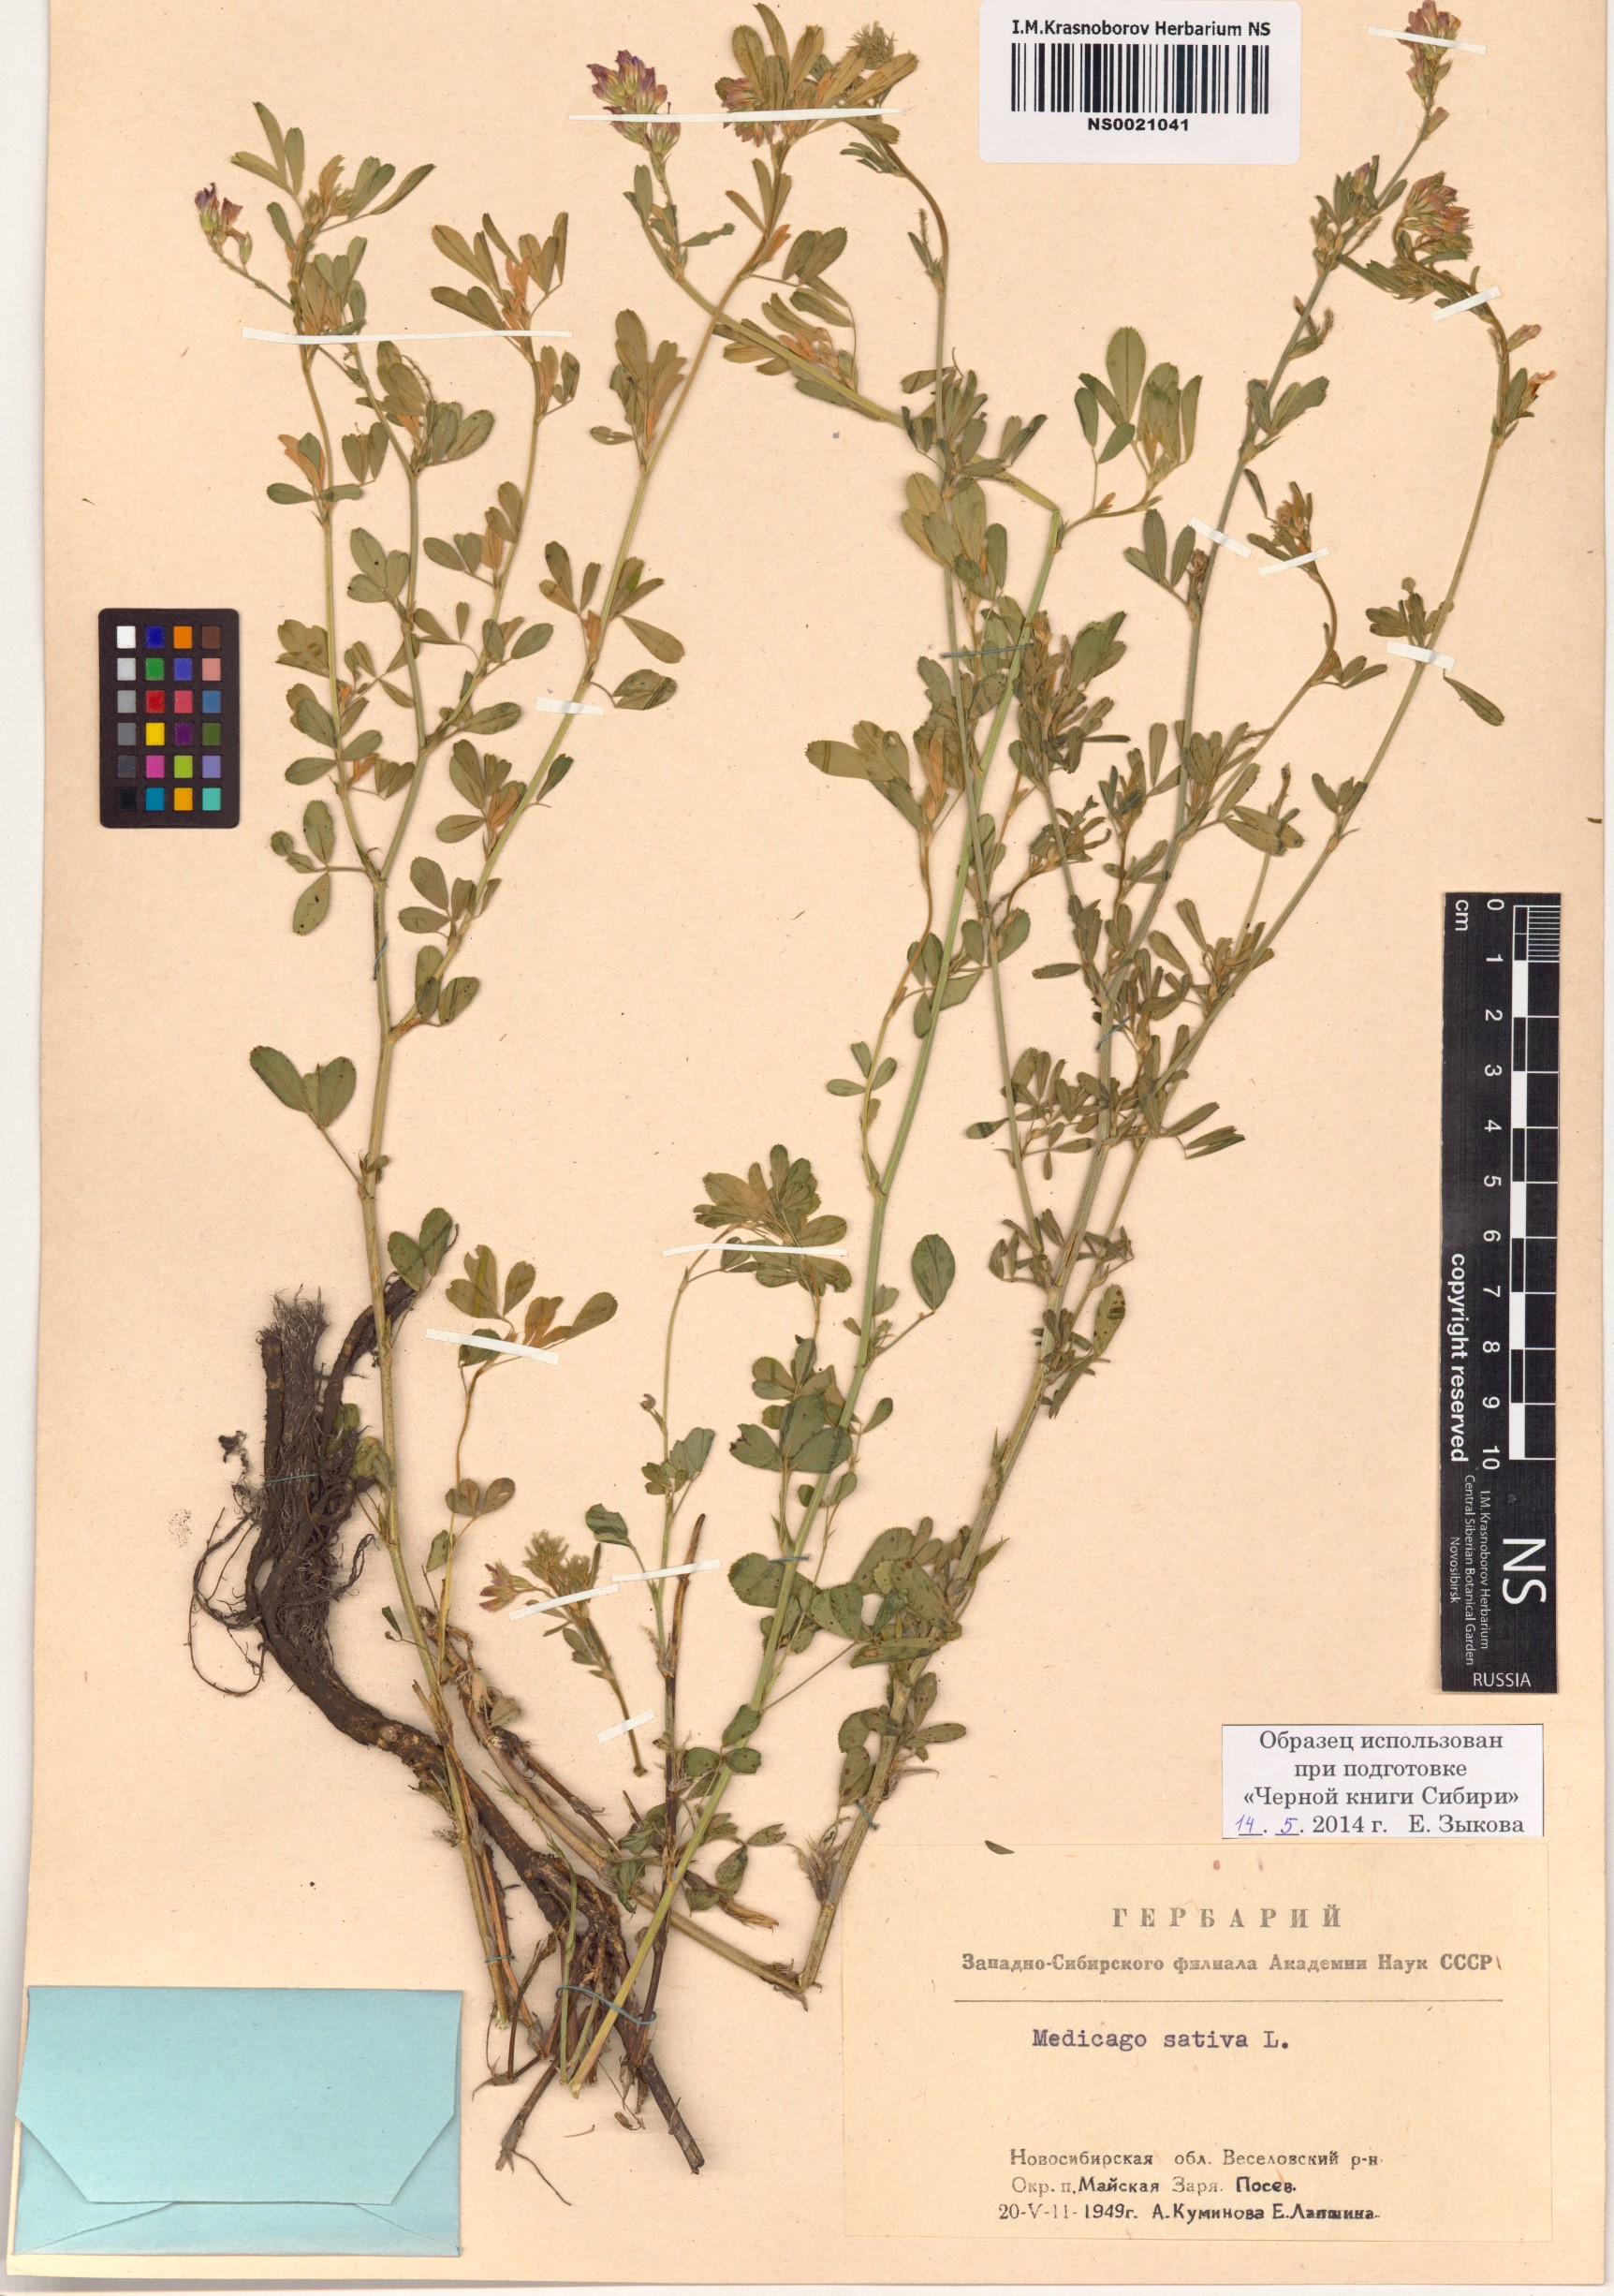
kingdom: Plantae
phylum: Tracheophyta
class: Magnoliopsida
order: Fabales
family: Fabaceae
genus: Medicago
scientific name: Medicago sativa
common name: Alfalfa
